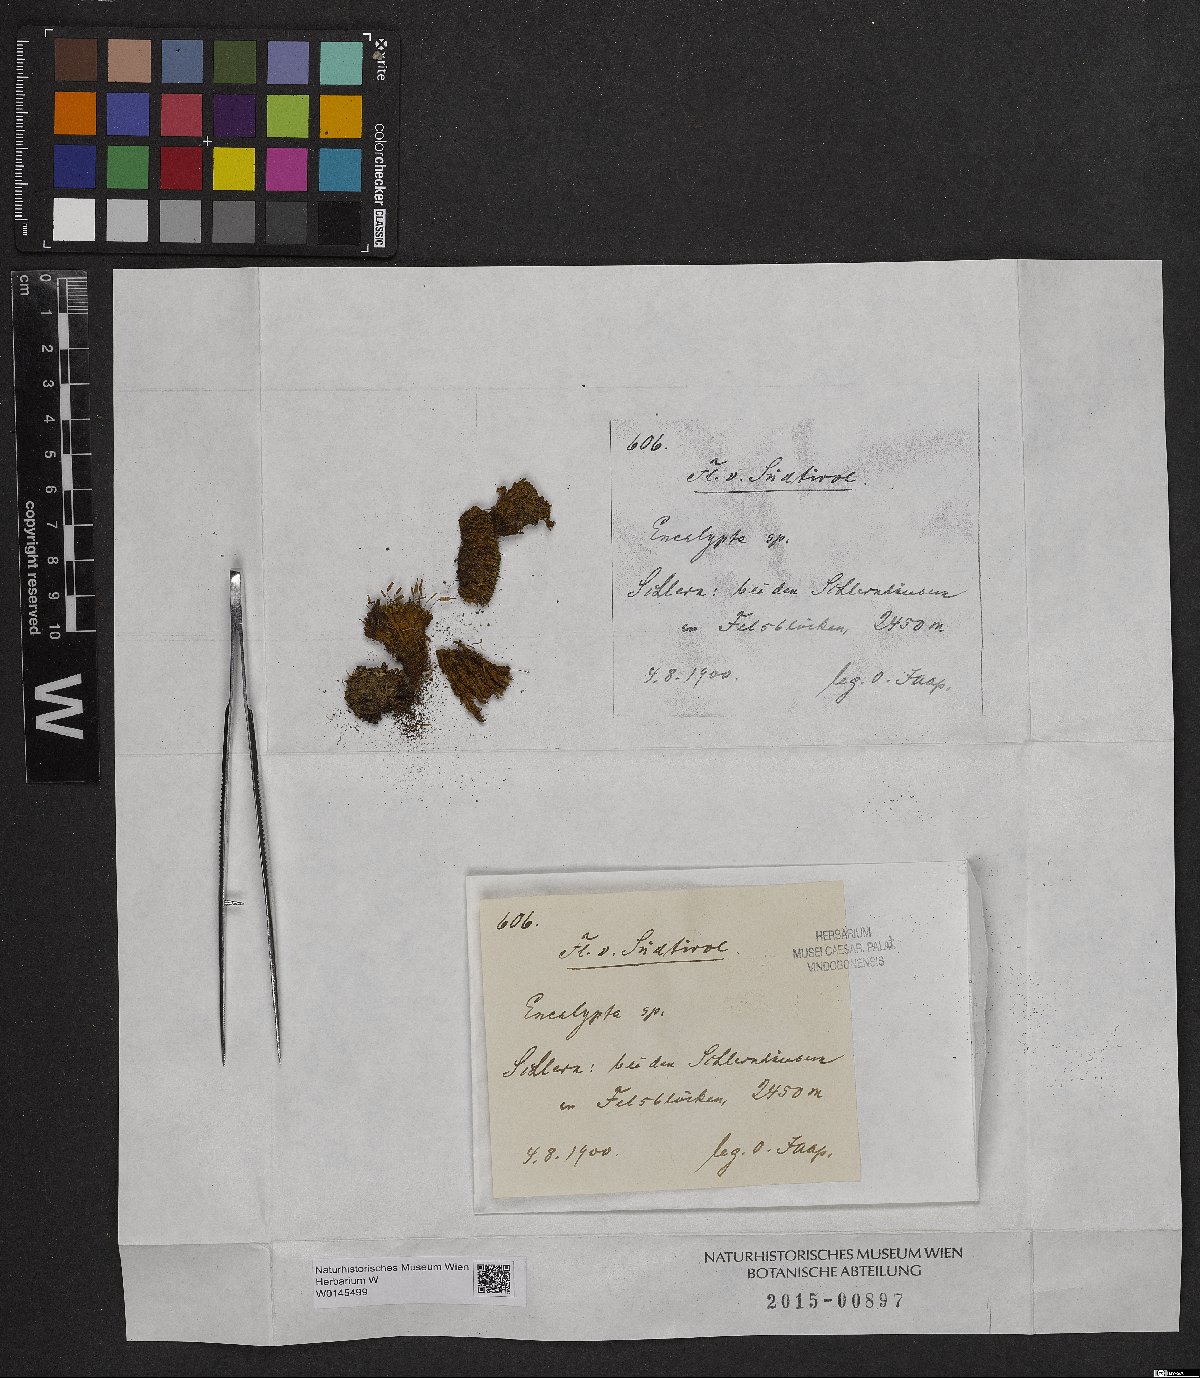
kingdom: Plantae
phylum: Bryophyta
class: Bryopsida
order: Encalyptales
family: Encalyptaceae
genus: Encalypta
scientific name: Encalypta
